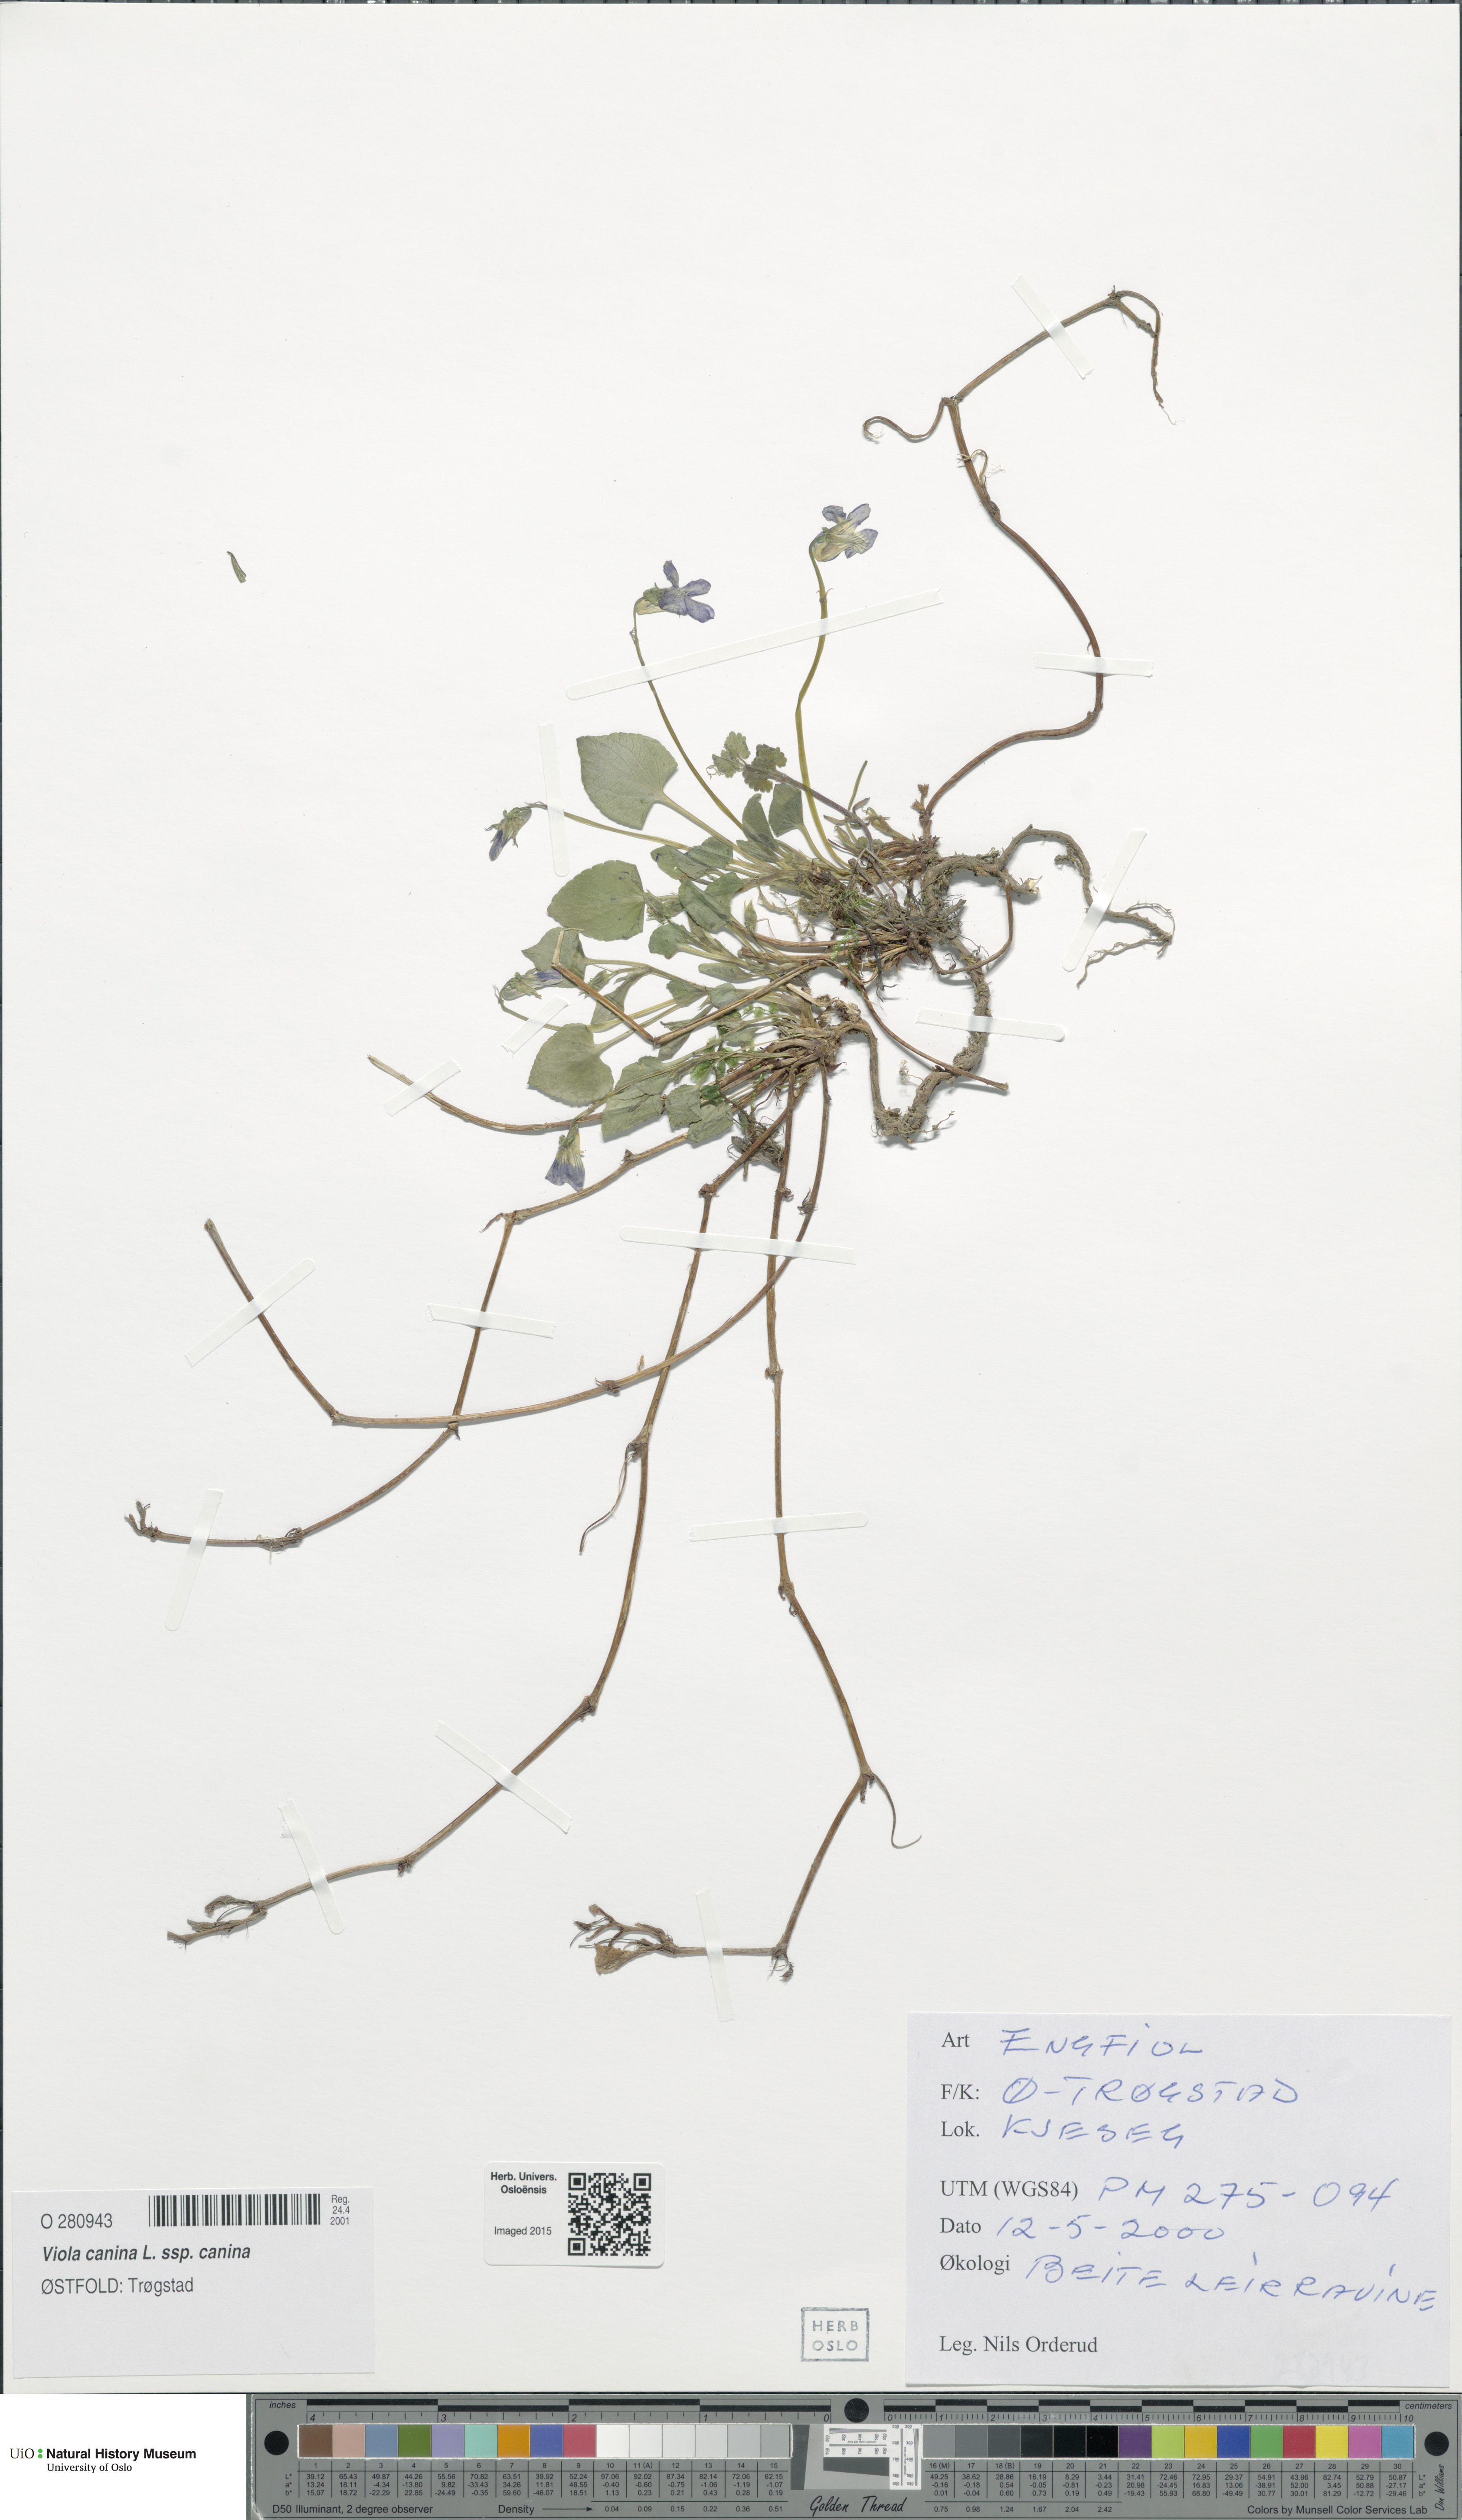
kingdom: Plantae
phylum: Tracheophyta
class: Magnoliopsida
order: Malpighiales
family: Violaceae
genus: Viola
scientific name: Viola canina
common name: Heath dog-violet
